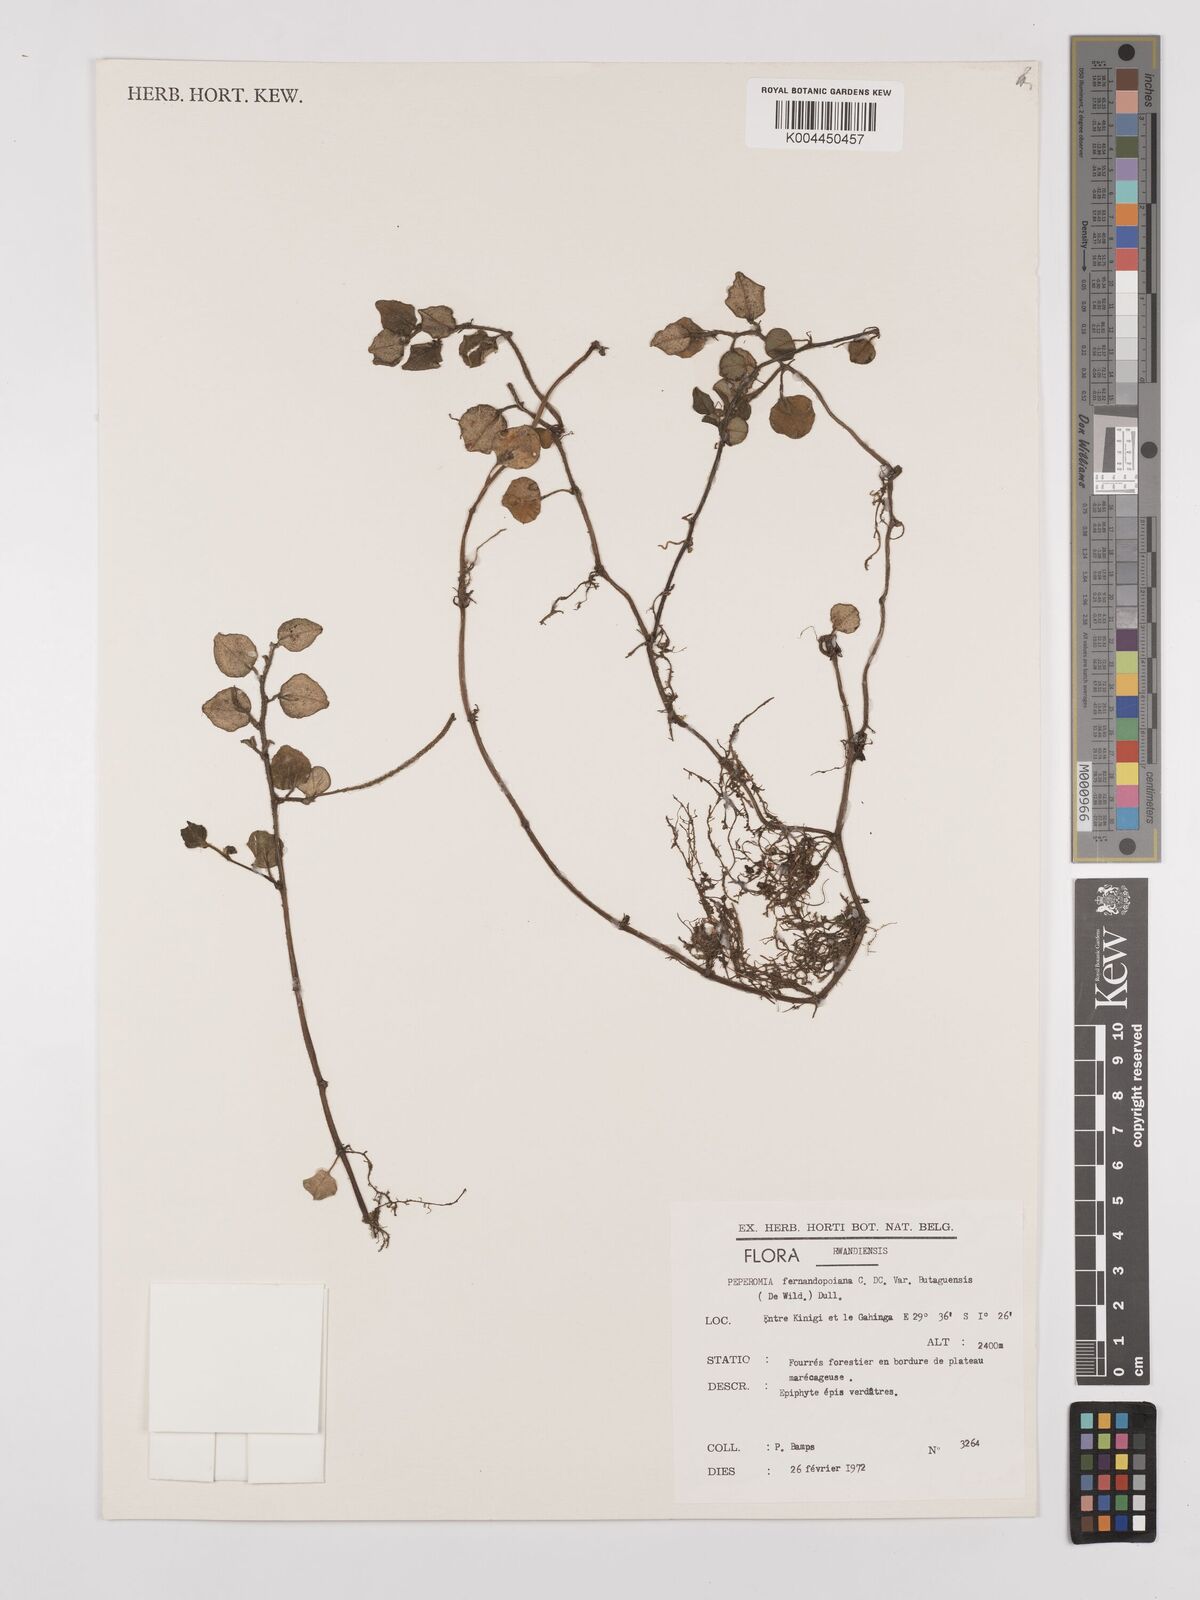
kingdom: Plantae
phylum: Tracheophyta
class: Magnoliopsida
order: Piperales
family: Piperaceae
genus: Peperomia
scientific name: Peperomia fernandopoiana
